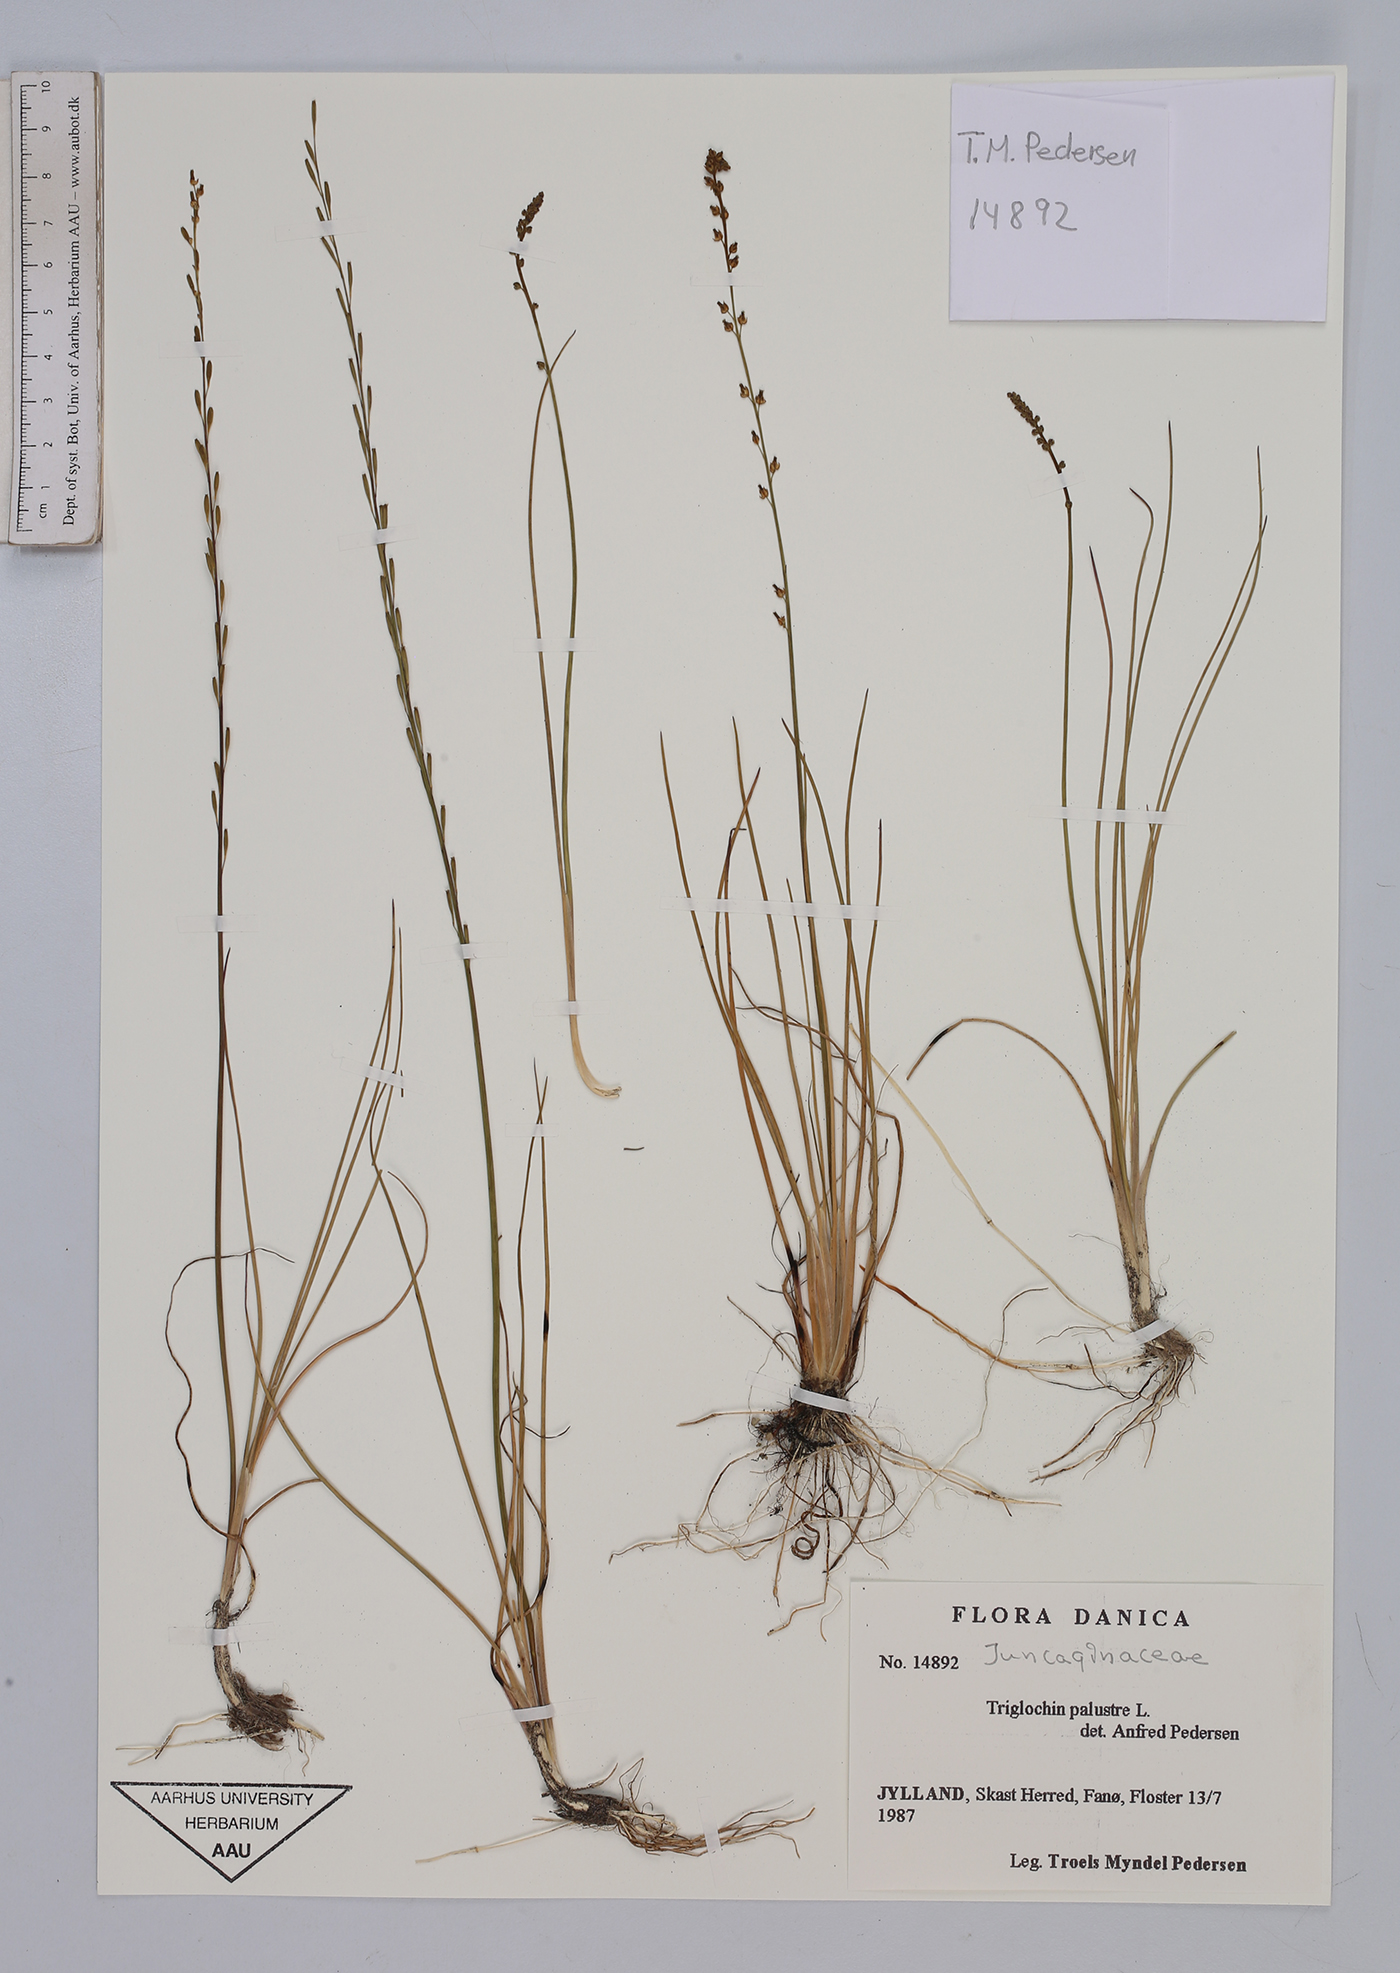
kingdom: Plantae
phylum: Tracheophyta
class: Liliopsida
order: Alismatales
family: Juncaginaceae
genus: Triglochin
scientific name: Triglochin palustris
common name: Marsh arrowgrass
